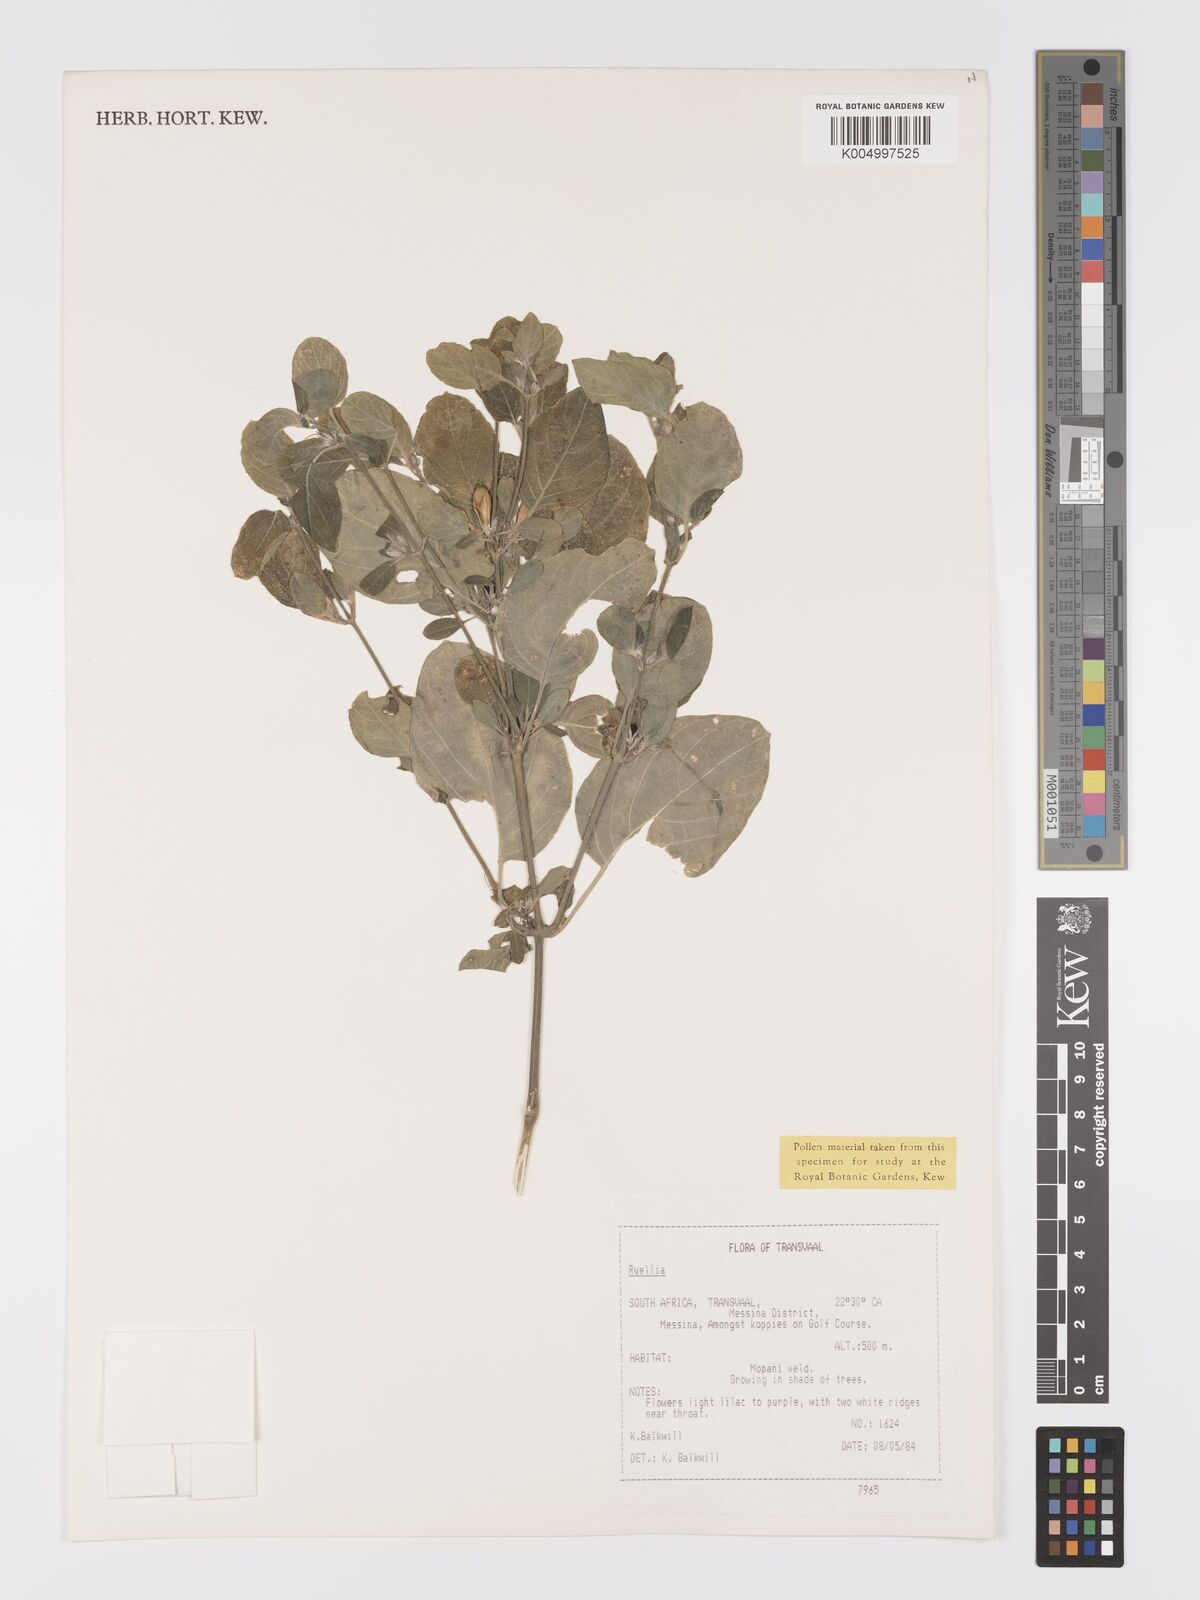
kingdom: Plantae
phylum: Tracheophyta
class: Magnoliopsida
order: Lamiales
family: Acanthaceae
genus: Ruellia
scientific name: Ruellia
